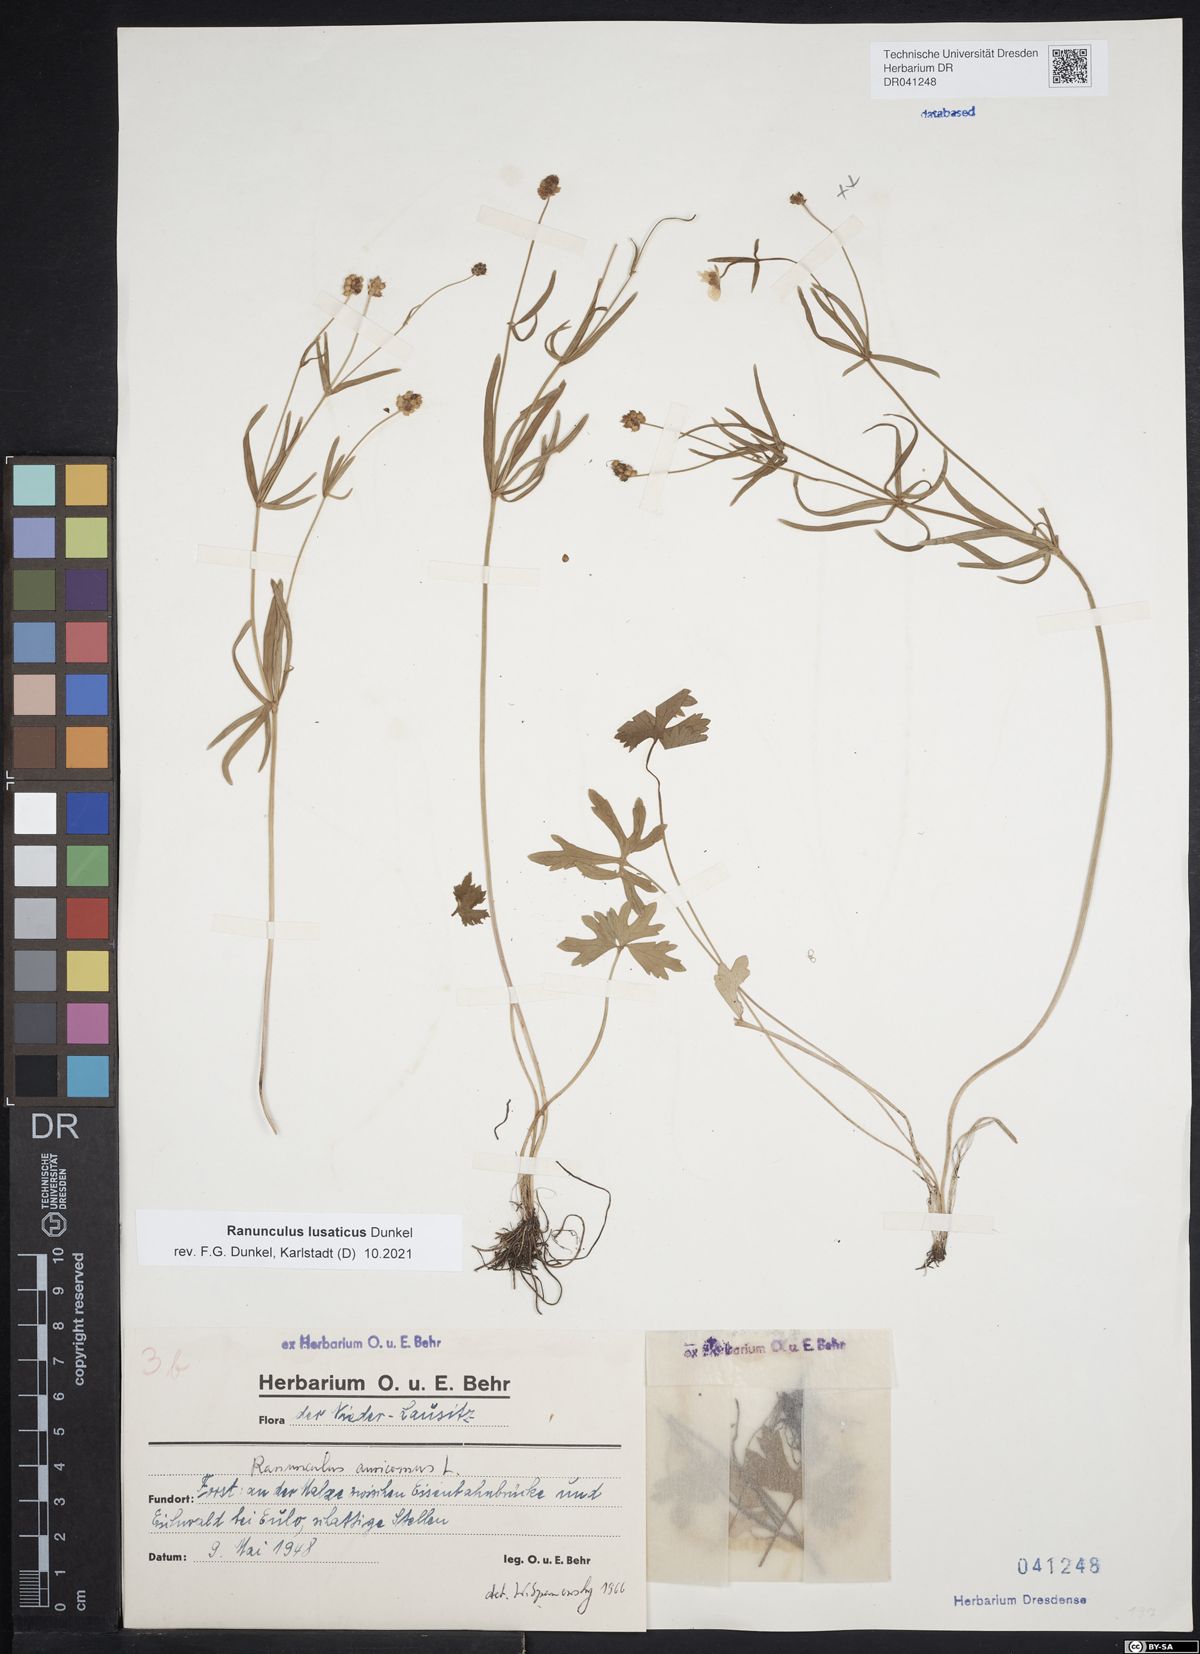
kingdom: Plantae
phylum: Tracheophyta
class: Magnoliopsida
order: Ranunculales
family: Ranunculaceae
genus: Ranunculus
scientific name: Ranunculus lusaticus
